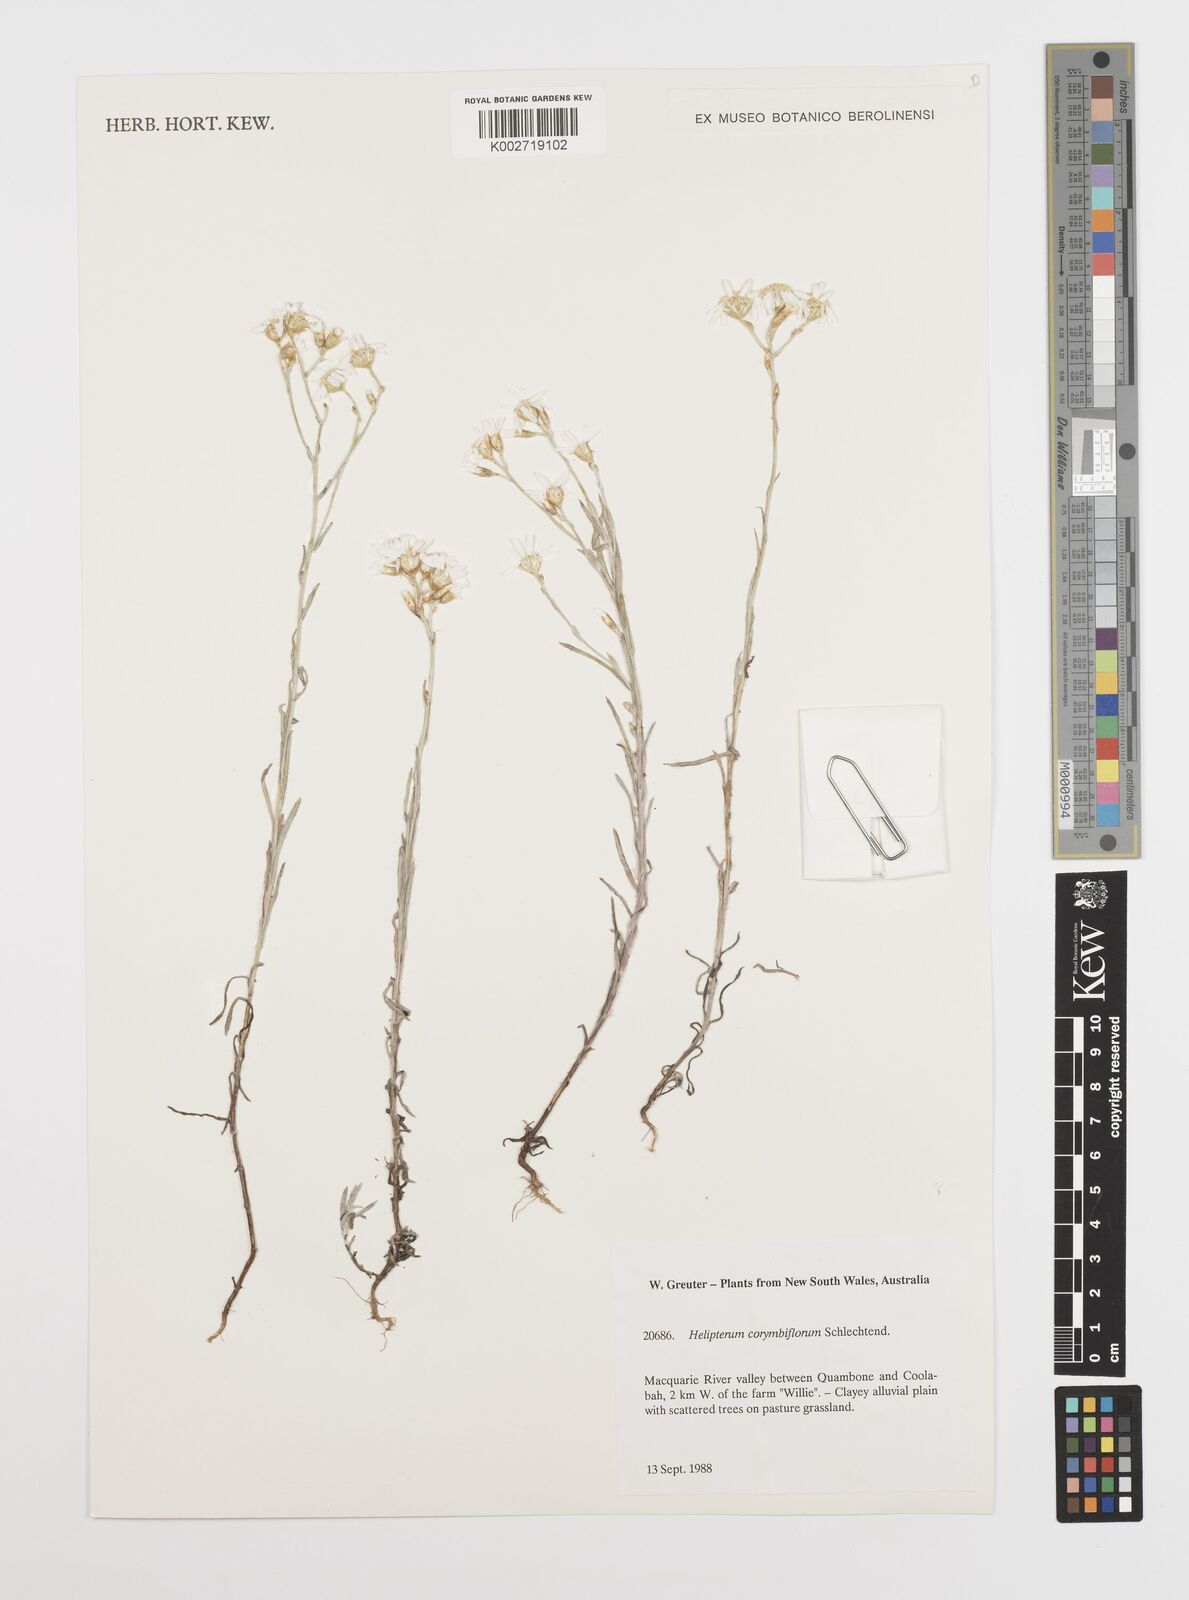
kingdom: Plantae
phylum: Tracheophyta
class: Magnoliopsida
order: Asterales
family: Asteraceae
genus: Rhodanthe
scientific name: Rhodanthe corymbiflora
